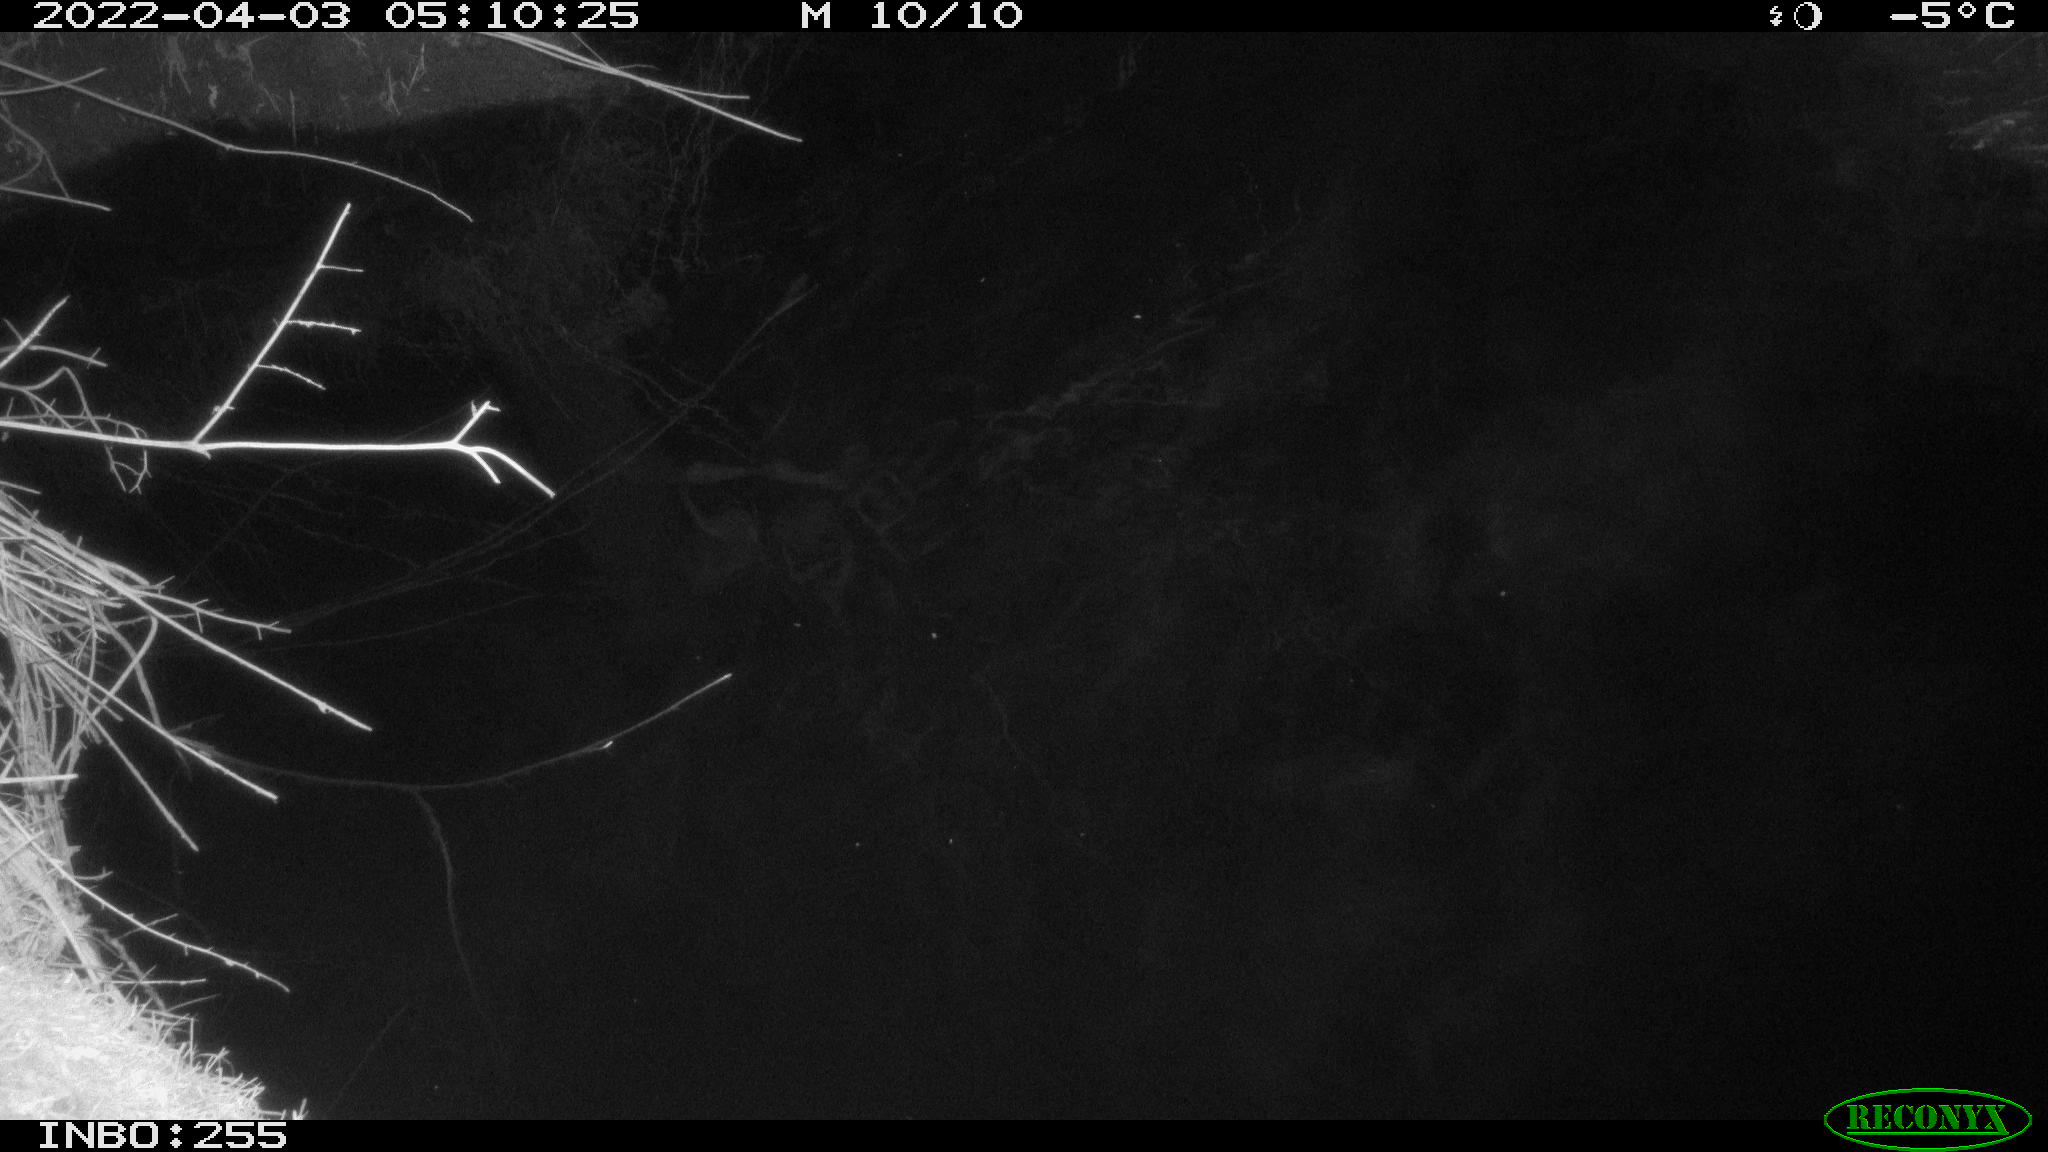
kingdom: Animalia
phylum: Chordata
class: Aves
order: Anseriformes
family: Anatidae
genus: Anas
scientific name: Anas platyrhynchos
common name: Mallard
